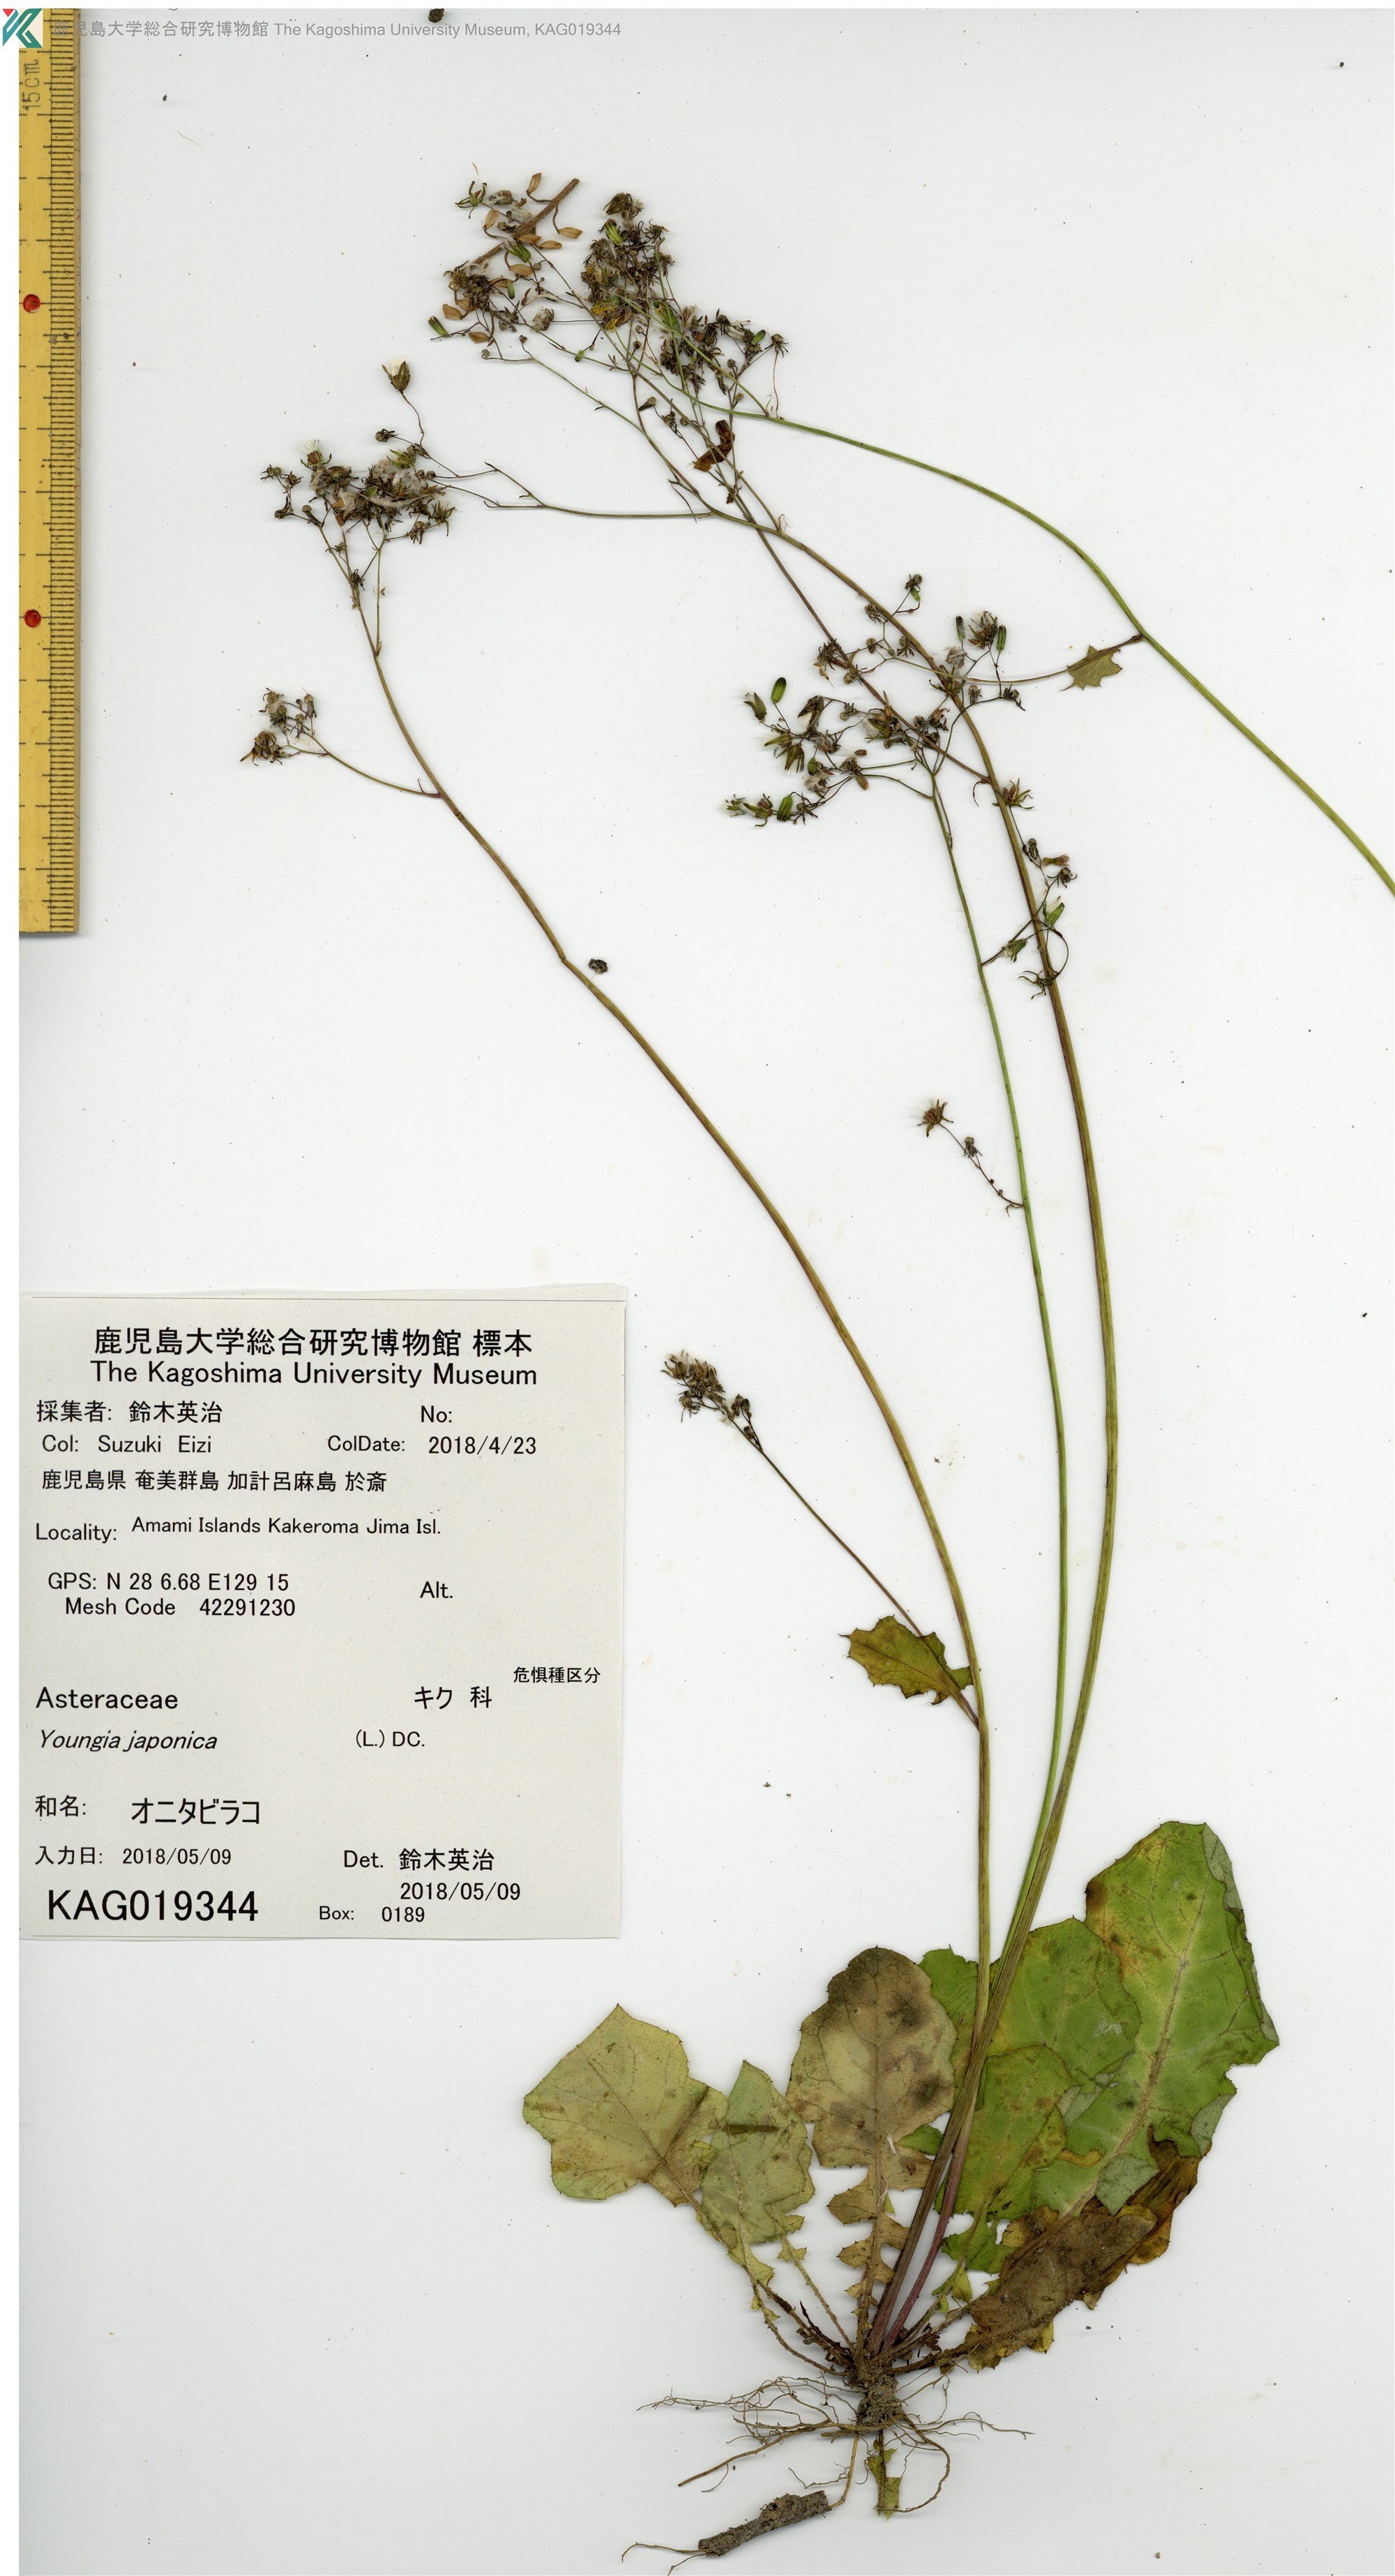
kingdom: Plantae
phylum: Tracheophyta
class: Magnoliopsida
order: Asterales
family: Asteraceae
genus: Youngia
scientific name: Youngia japonica
